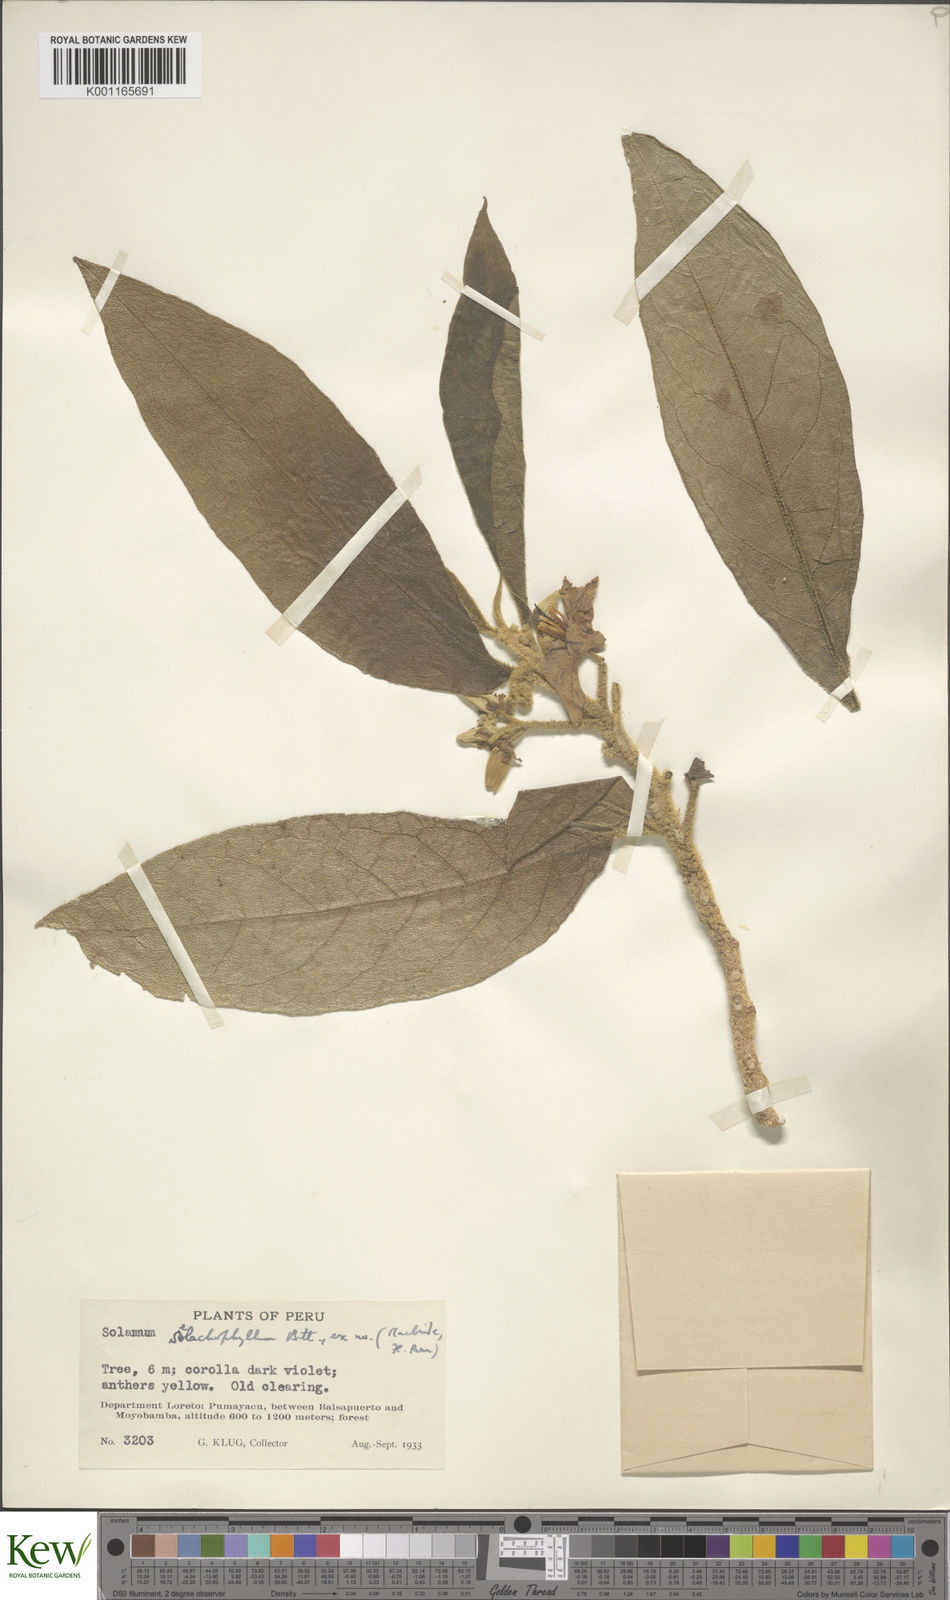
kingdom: Plantae
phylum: Tracheophyta
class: Magnoliopsida
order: Solanales
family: Solanaceae
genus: Solanum
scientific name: Solanum selachophyllum
